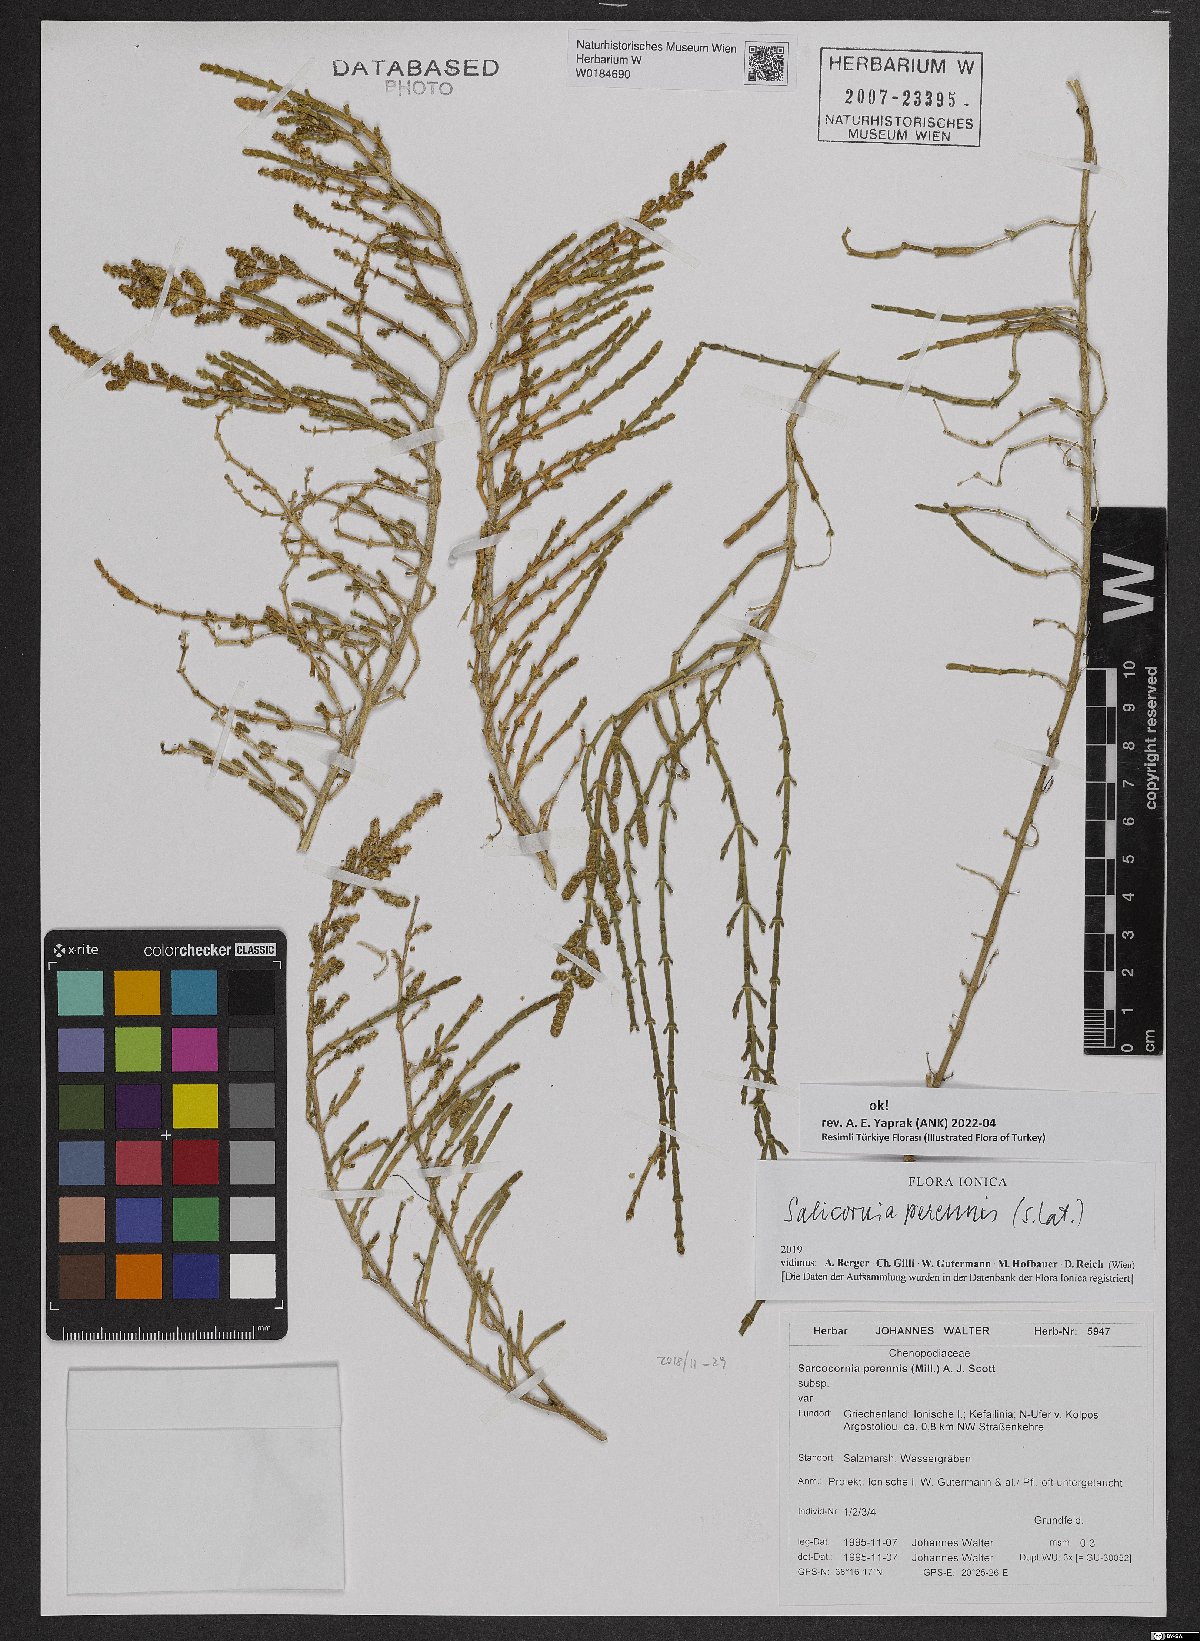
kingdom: Plantae
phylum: Tracheophyta
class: Magnoliopsida
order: Caryophyllales
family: Amaranthaceae
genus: Salicornia
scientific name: Salicornia perennis
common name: Chicken claws
